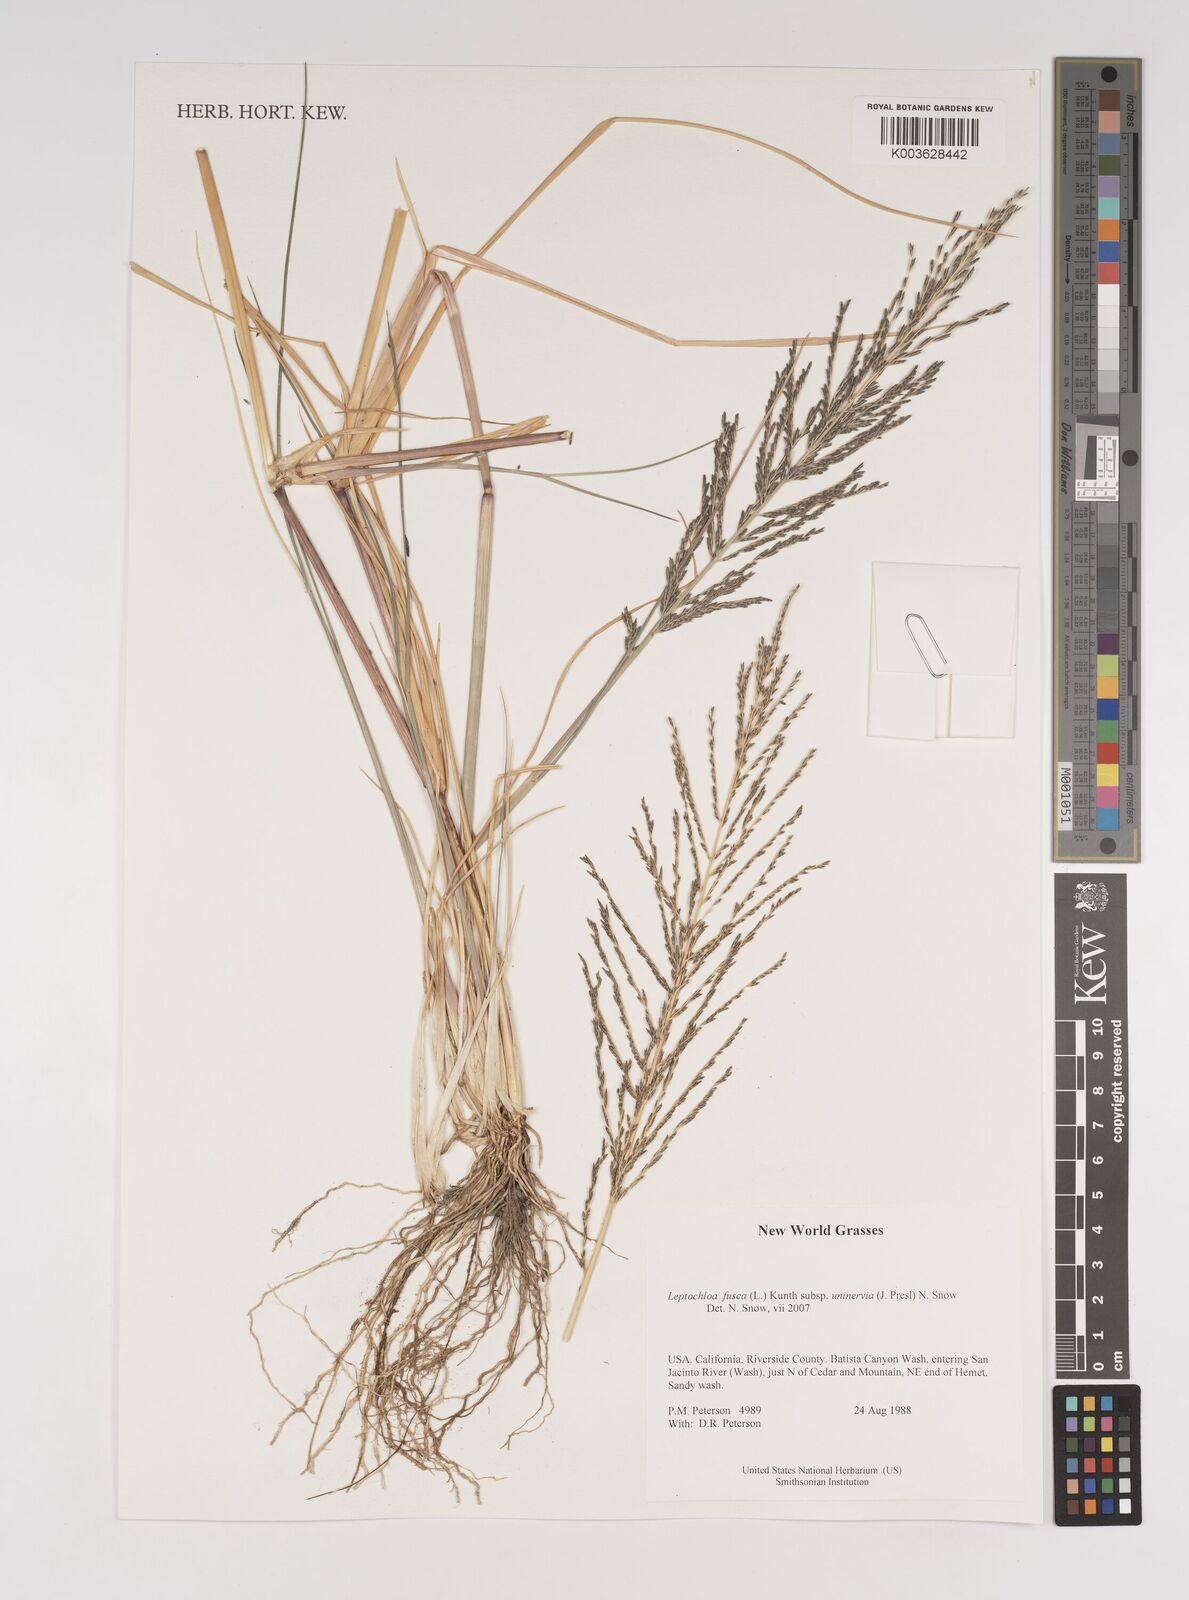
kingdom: Plantae
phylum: Tracheophyta
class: Liliopsida
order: Poales
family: Poaceae
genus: Diplachne
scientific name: Diplachne fusca
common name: Brown beetle grass
